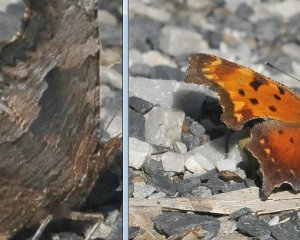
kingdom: Animalia
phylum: Arthropoda
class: Insecta
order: Lepidoptera
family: Nymphalidae
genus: Polygonia
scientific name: Polygonia progne
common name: Gray Comma
